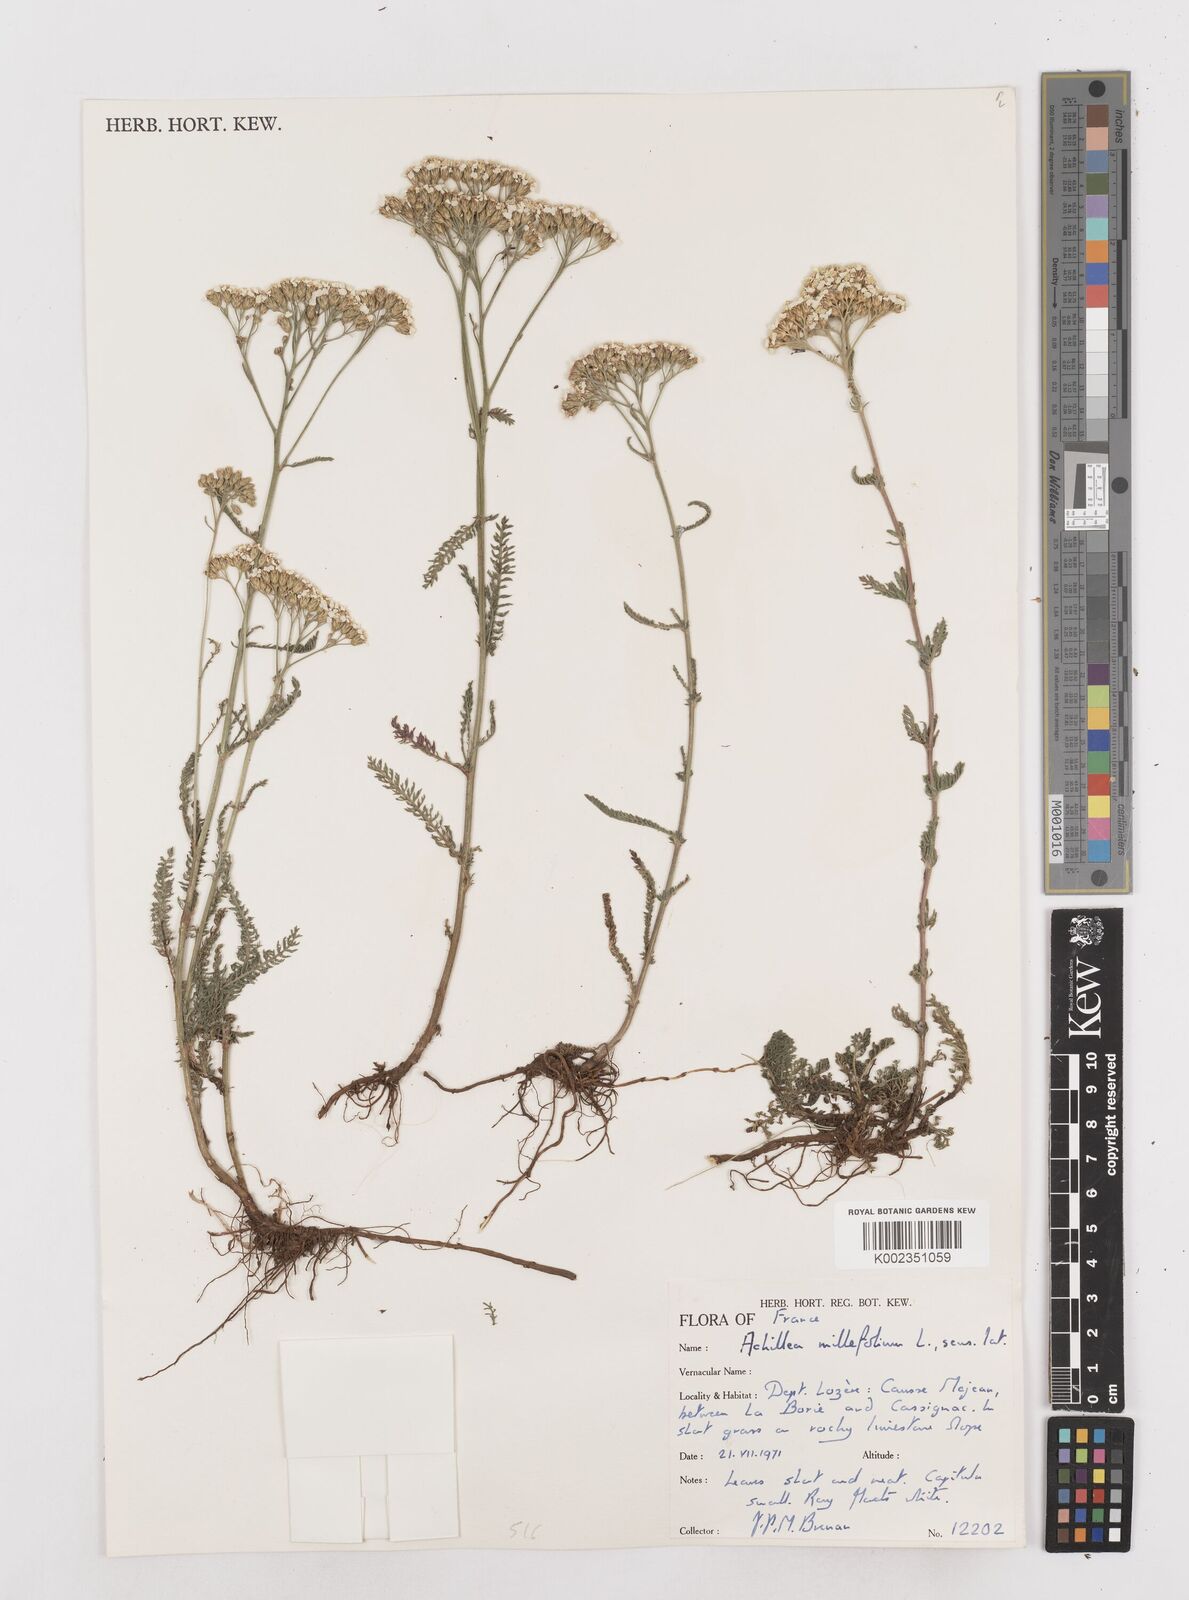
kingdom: Plantae
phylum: Tracheophyta
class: Magnoliopsida
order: Asterales
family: Asteraceae
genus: Achillea
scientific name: Achillea millefolium
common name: Yarrow
